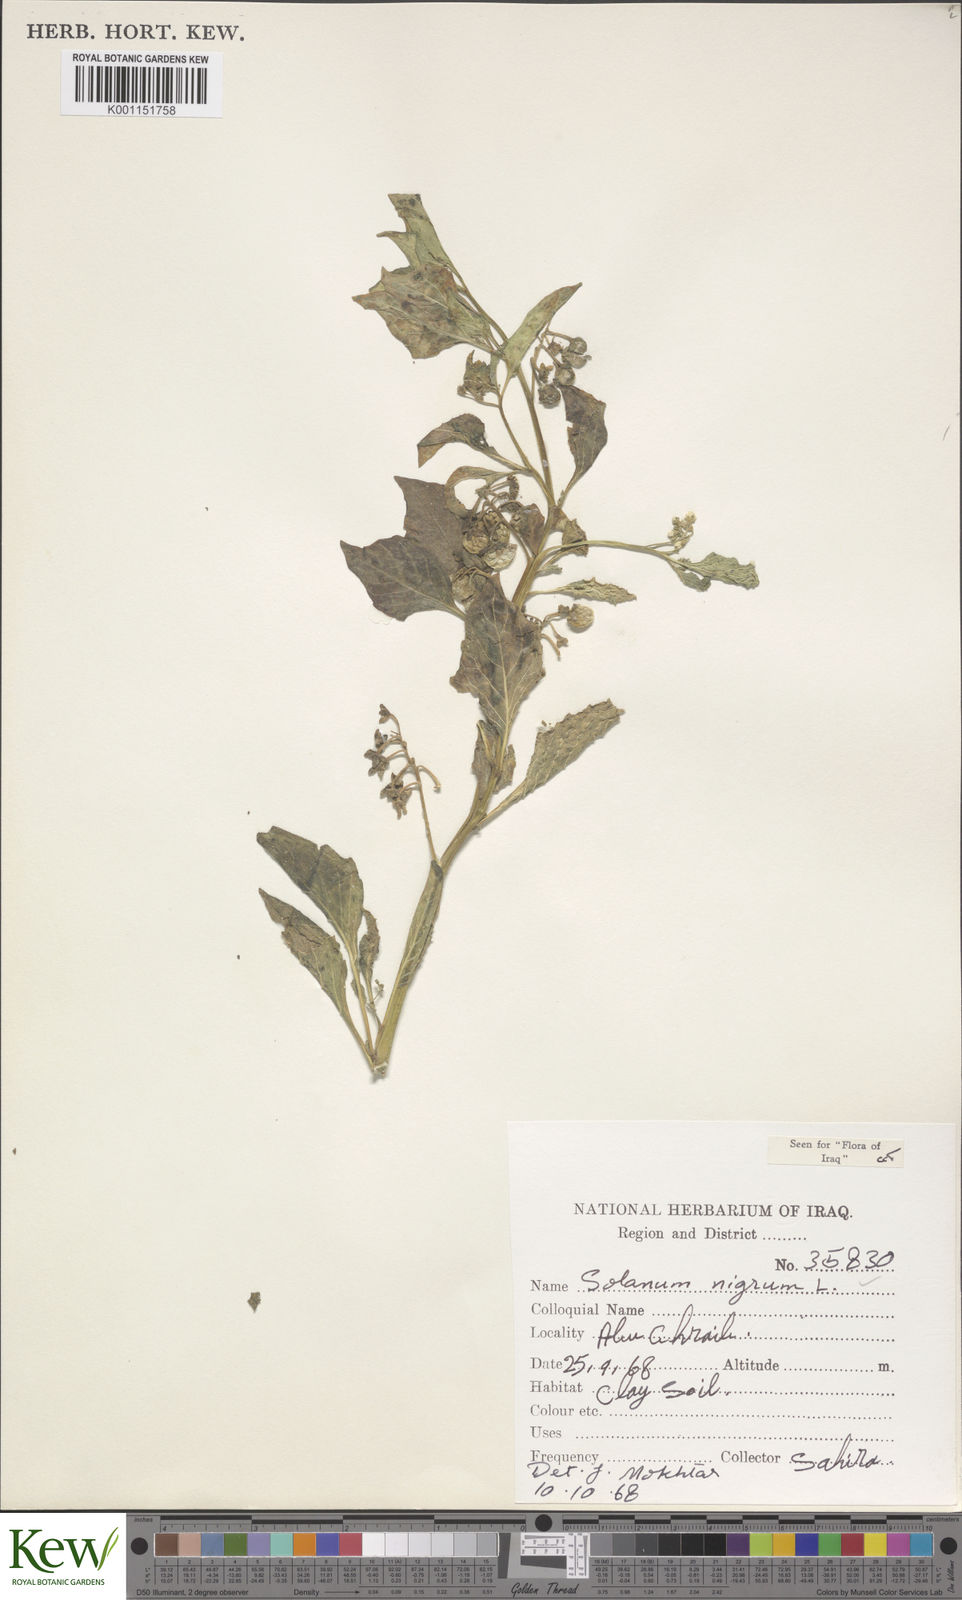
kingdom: Plantae
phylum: Tracheophyta
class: Magnoliopsida
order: Solanales
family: Solanaceae
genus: Solanum
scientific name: Solanum nigrum
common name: Black nightshade
